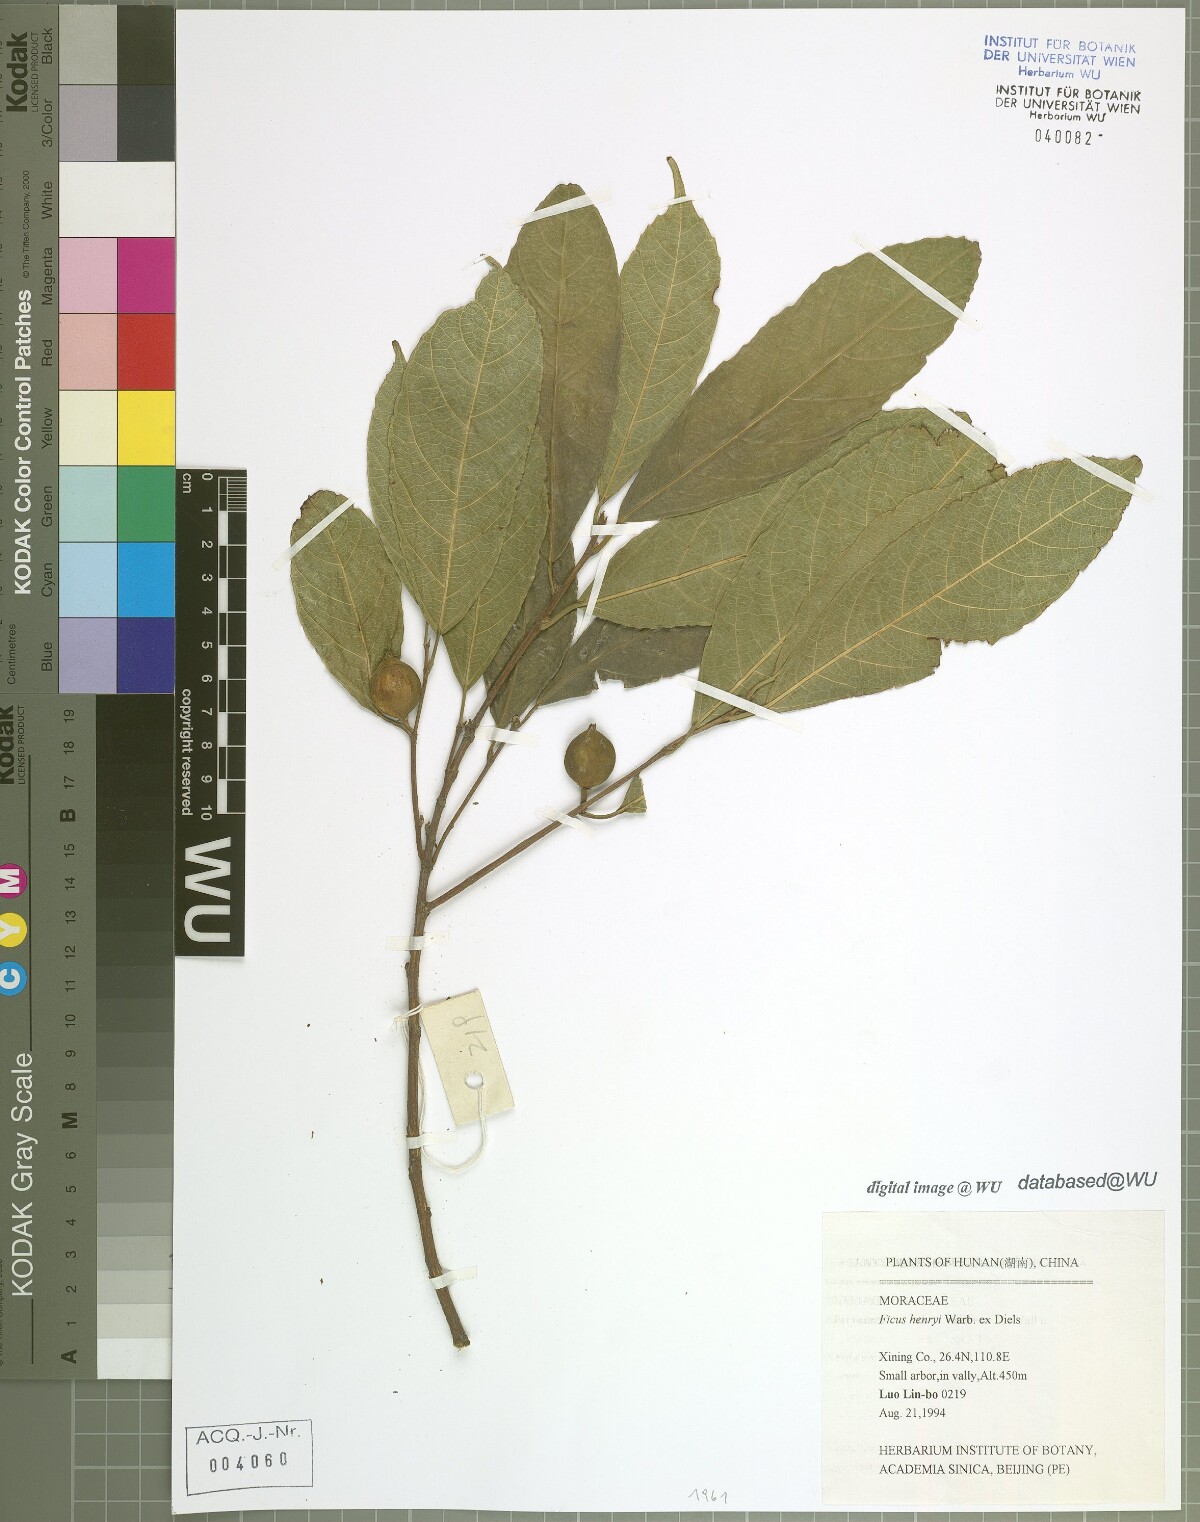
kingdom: Plantae
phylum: Tracheophyta
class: Magnoliopsida
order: Rosales
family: Moraceae
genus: Ficus
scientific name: Ficus henryi
